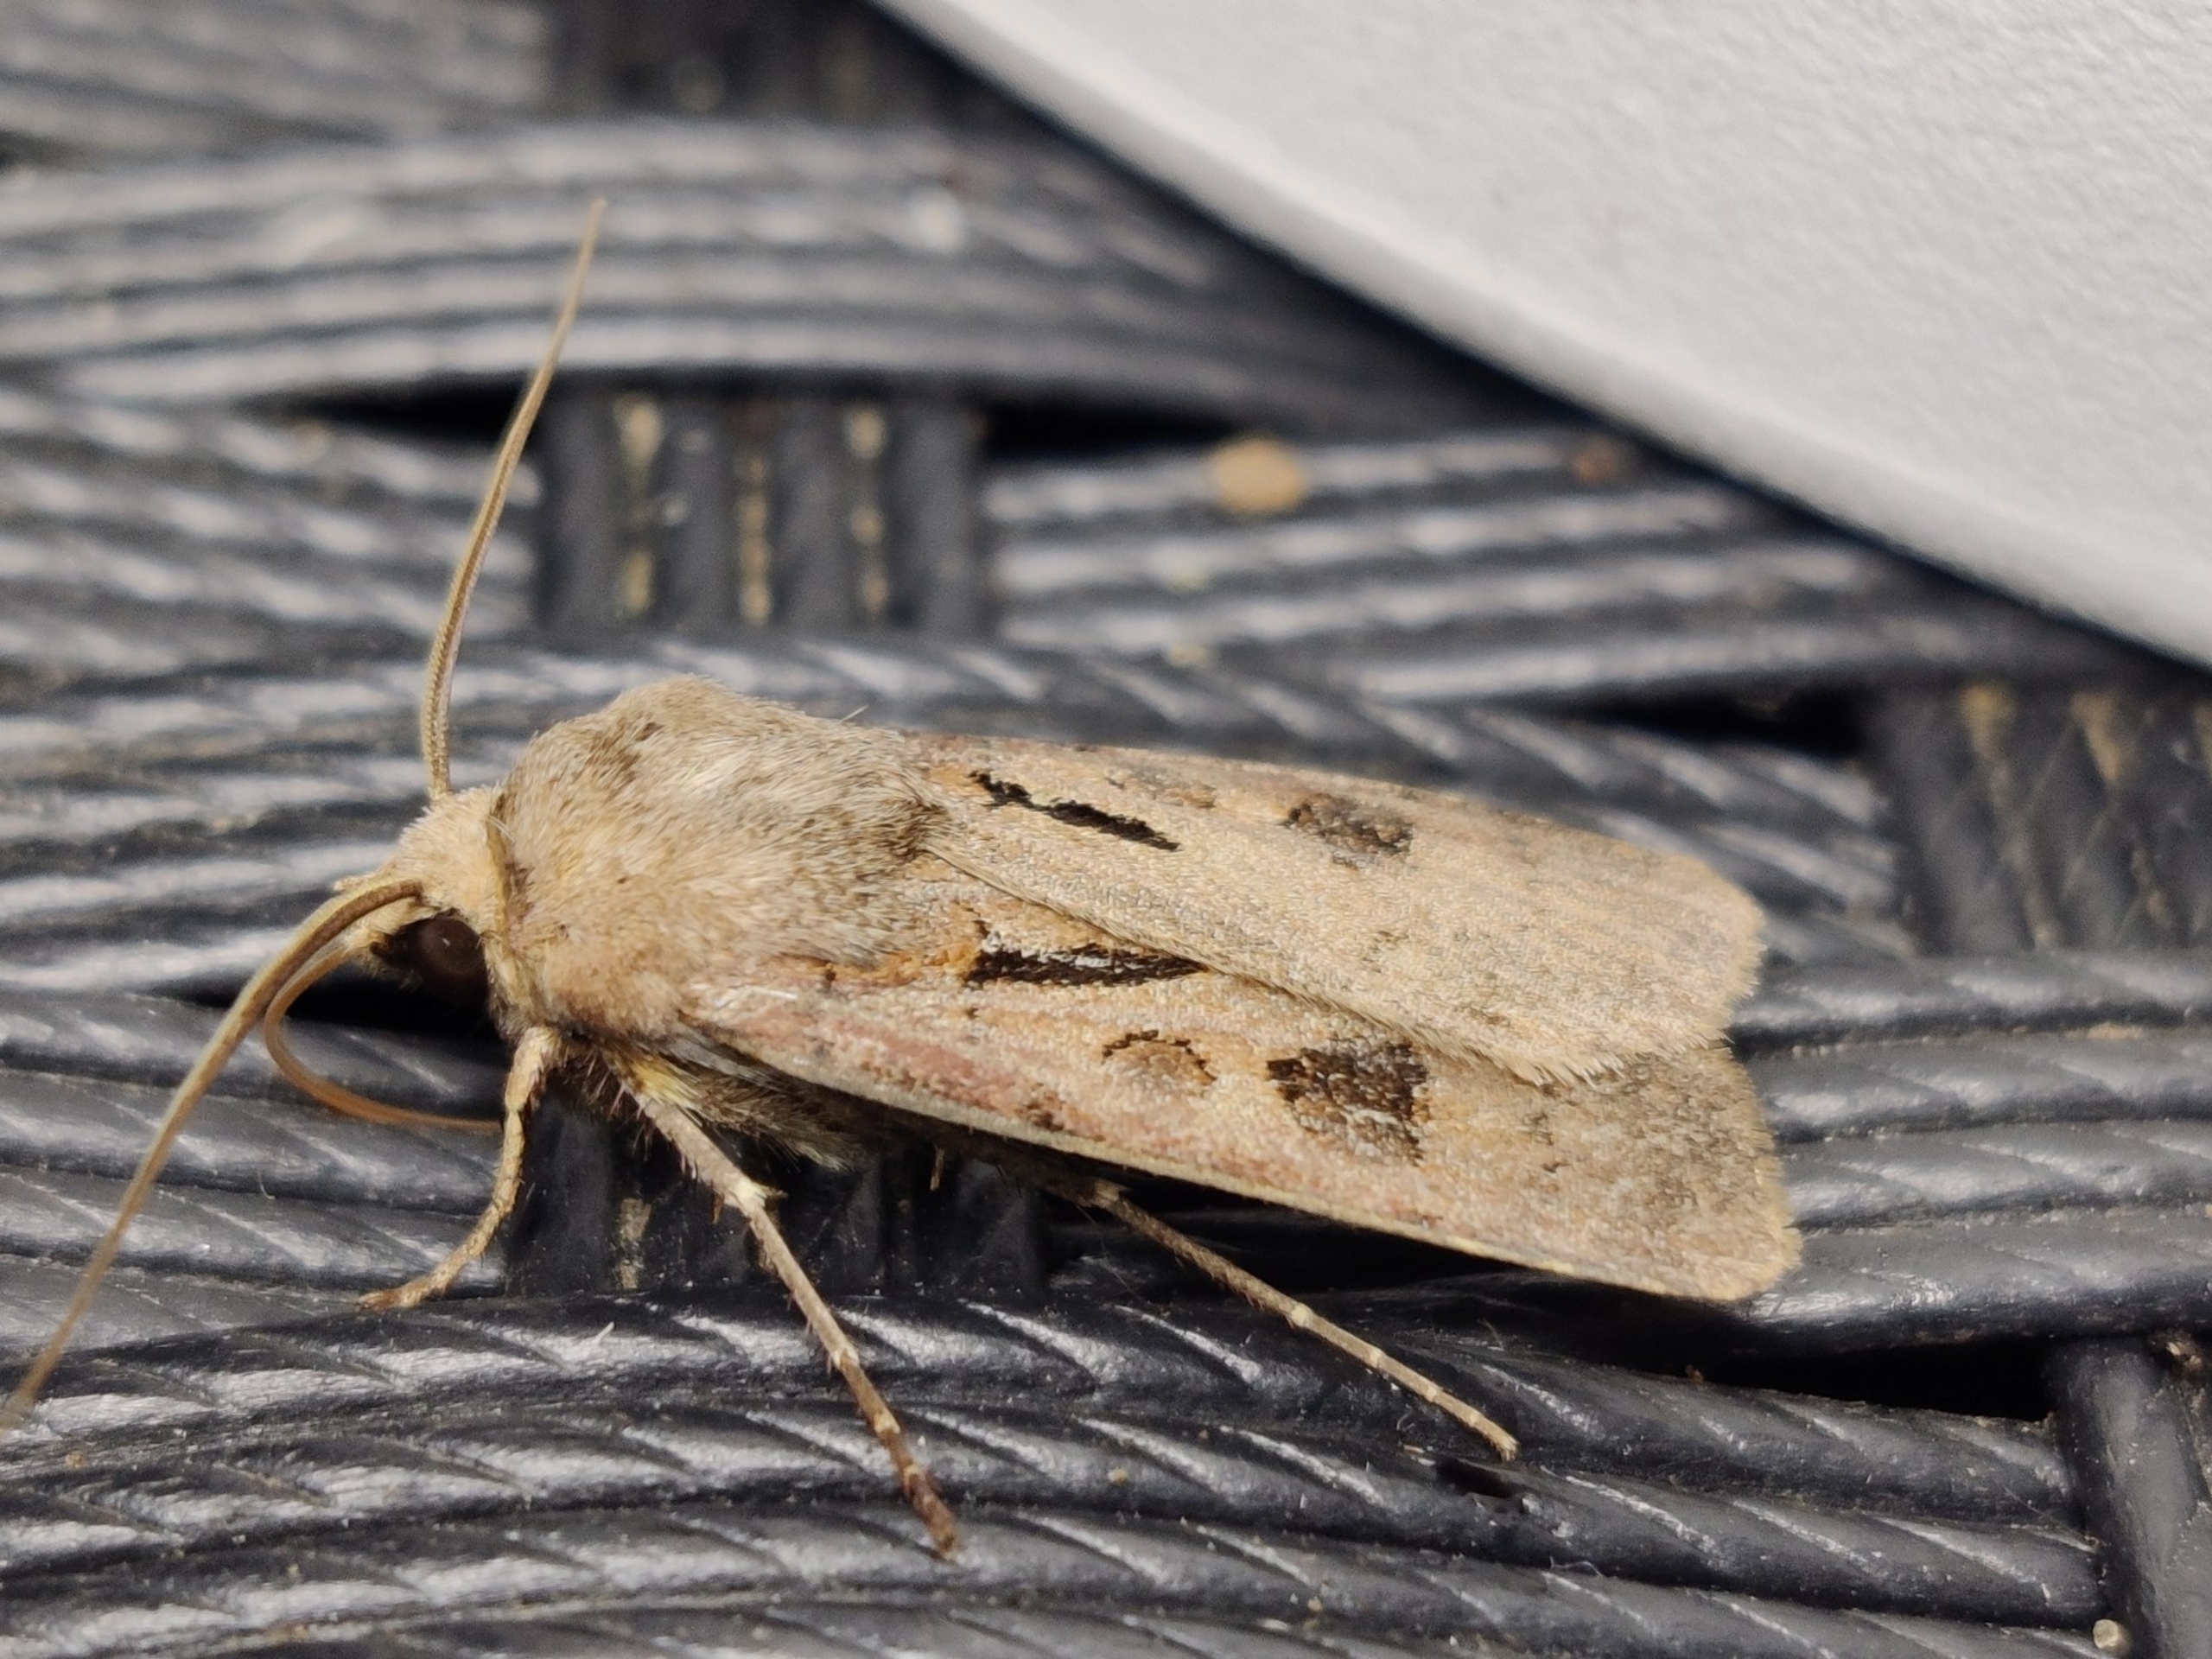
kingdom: Animalia
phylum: Arthropoda
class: Insecta
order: Lepidoptera
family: Noctuidae
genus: Agrotis
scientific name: Agrotis exclamationis
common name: Udråbstegnsugle
